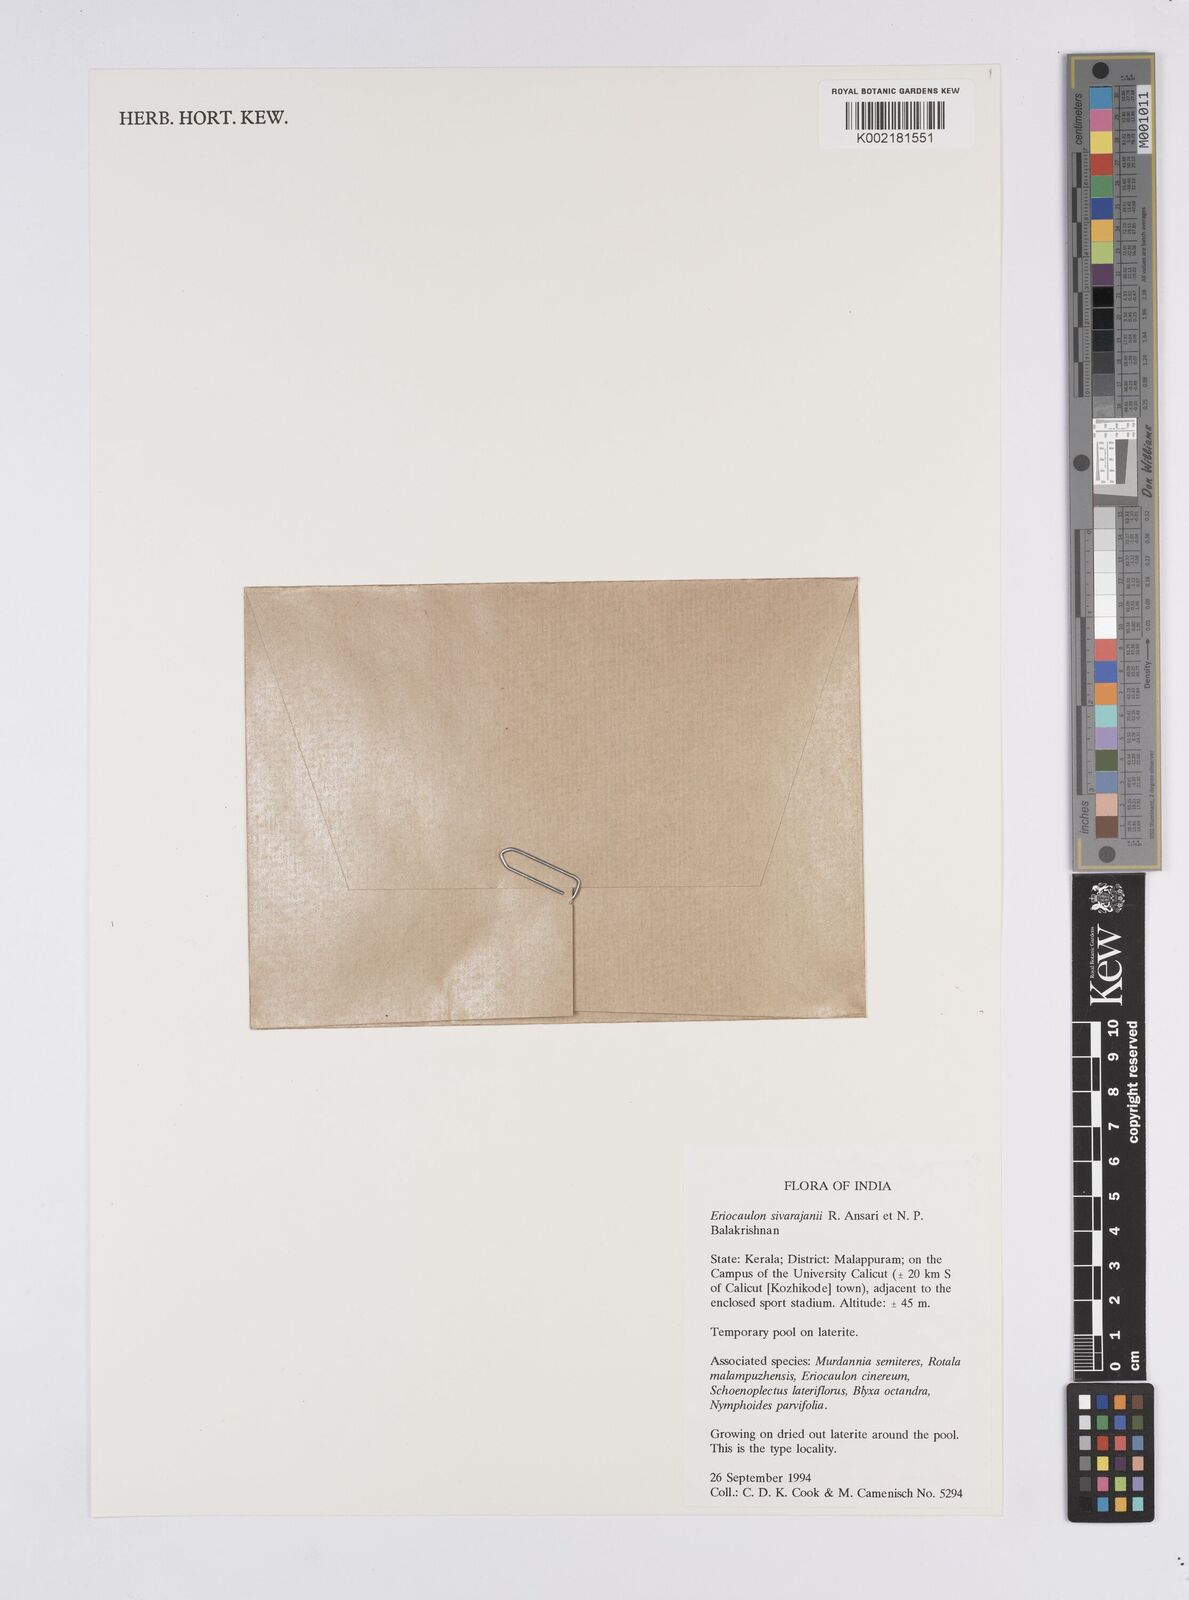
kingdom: Plantae
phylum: Tracheophyta
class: Liliopsida
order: Poales
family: Eriocaulaceae
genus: Eriocaulon
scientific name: Eriocaulon sivarajanii
